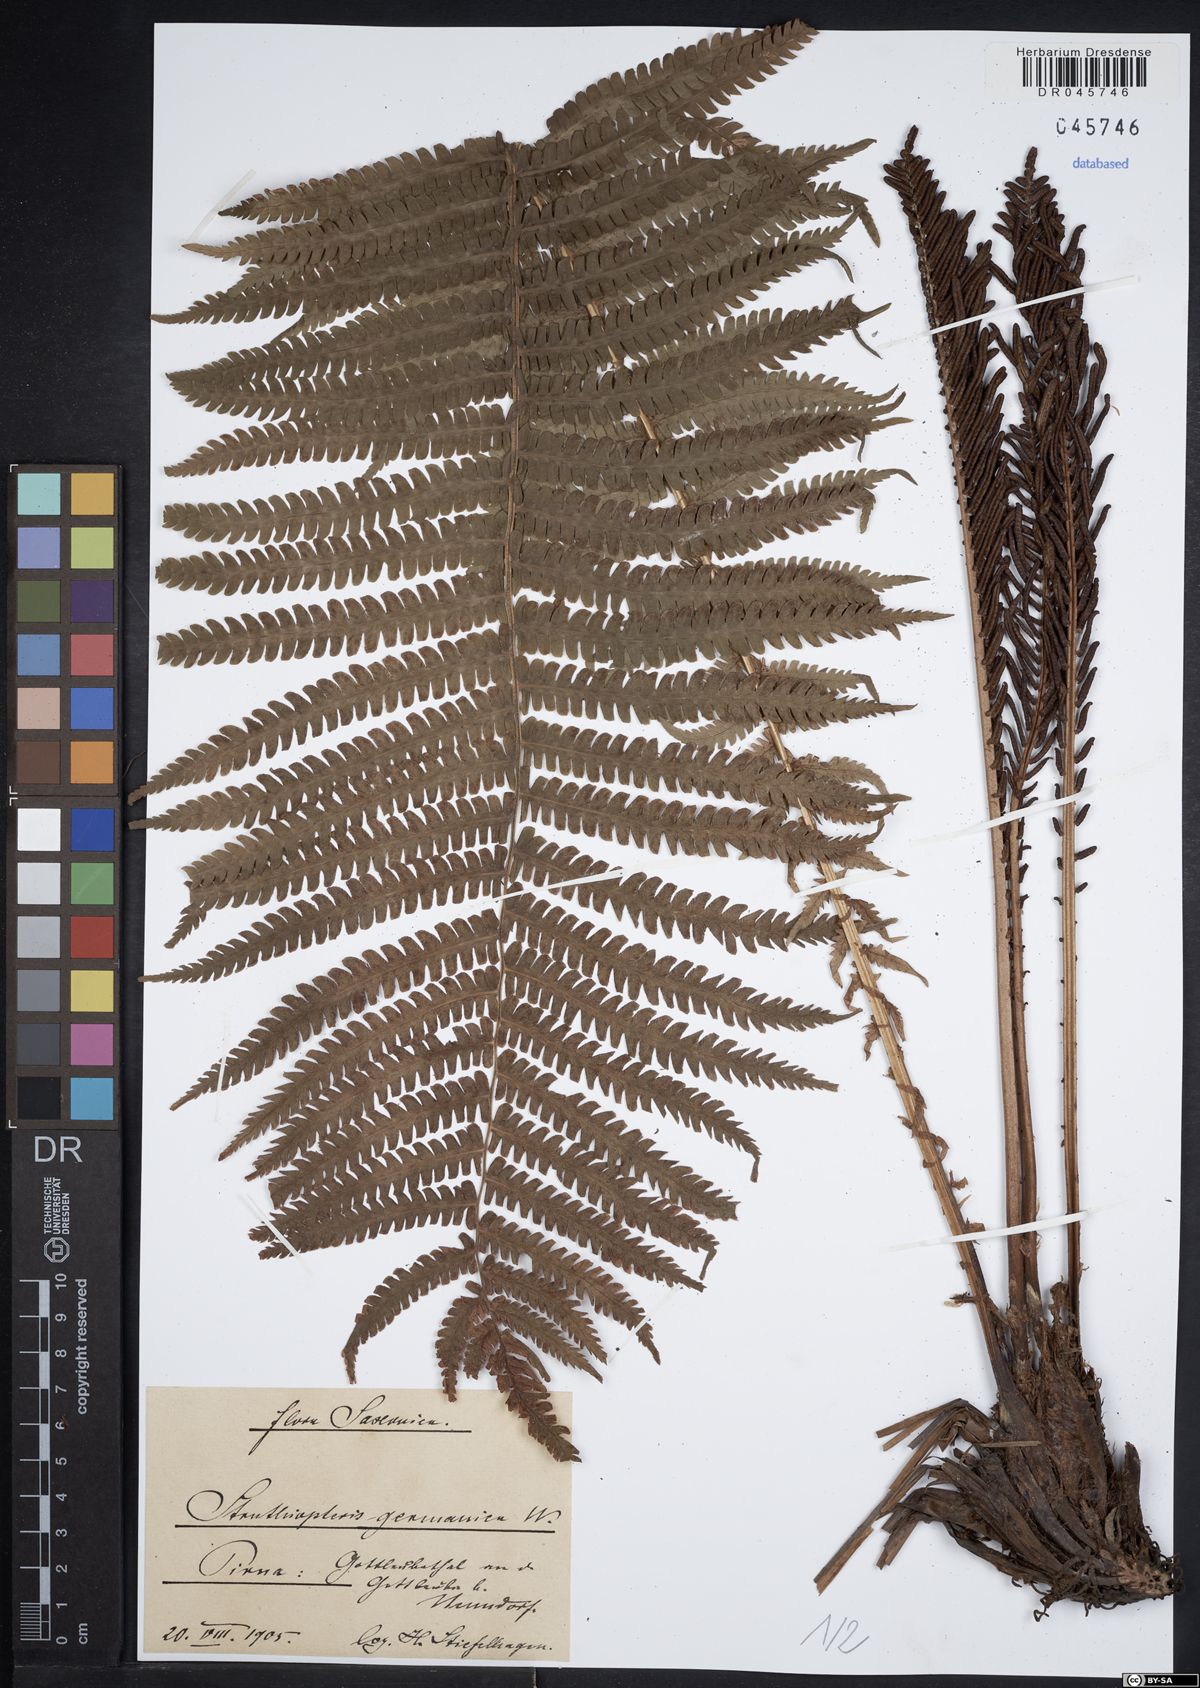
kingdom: Plantae
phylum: Tracheophyta
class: Polypodiopsida
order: Polypodiales
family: Onocleaceae
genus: Matteuccia
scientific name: Matteuccia struthiopteris
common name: Ostrich fern
